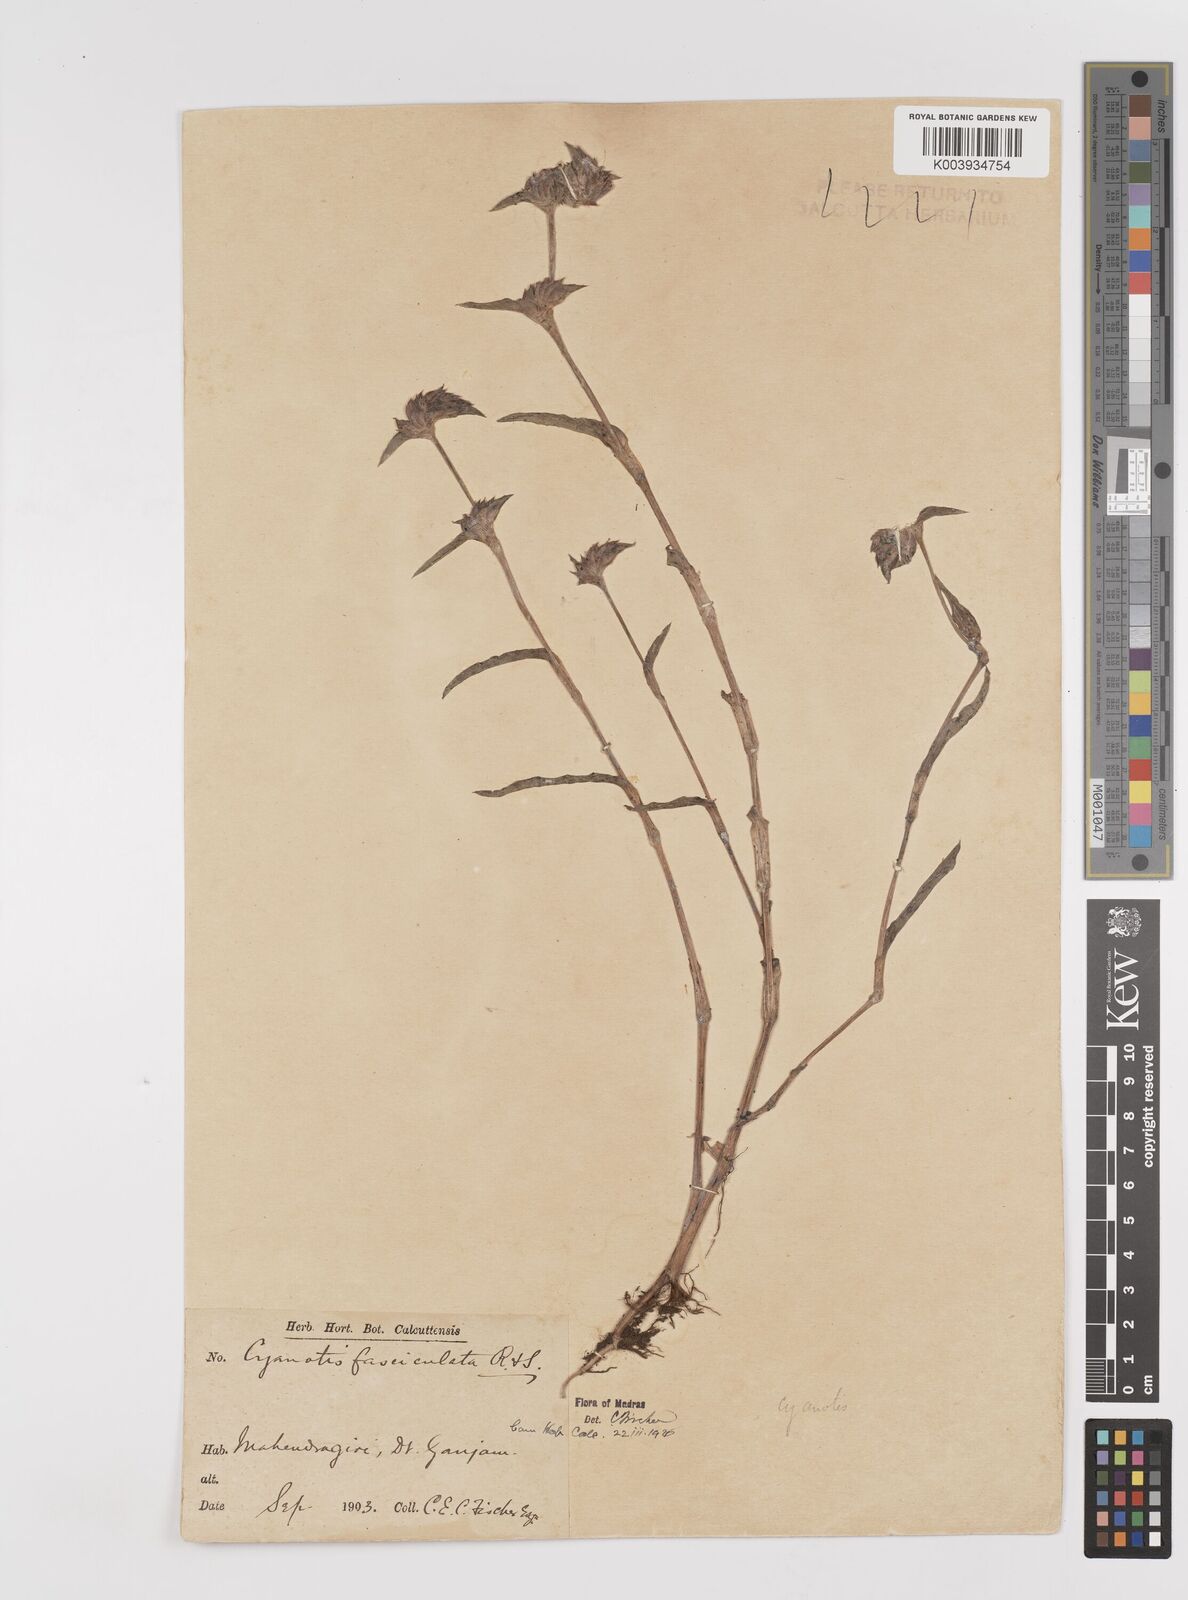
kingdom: Plantae
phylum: Tracheophyta
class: Liliopsida
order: Commelinales
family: Commelinaceae
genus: Cyanotis
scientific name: Cyanotis fasciculata
